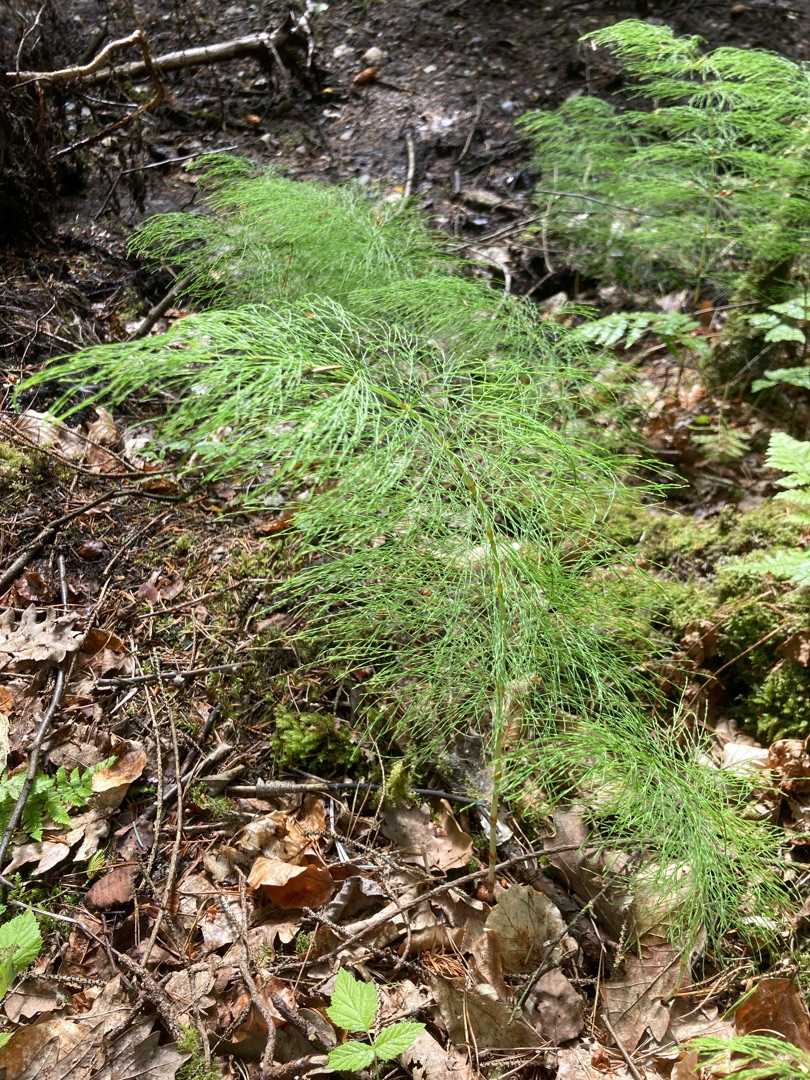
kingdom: Plantae
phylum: Tracheophyta
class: Polypodiopsida
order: Equisetales
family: Equisetaceae
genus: Equisetum
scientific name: Equisetum sylvaticum
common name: Skov-padderok
